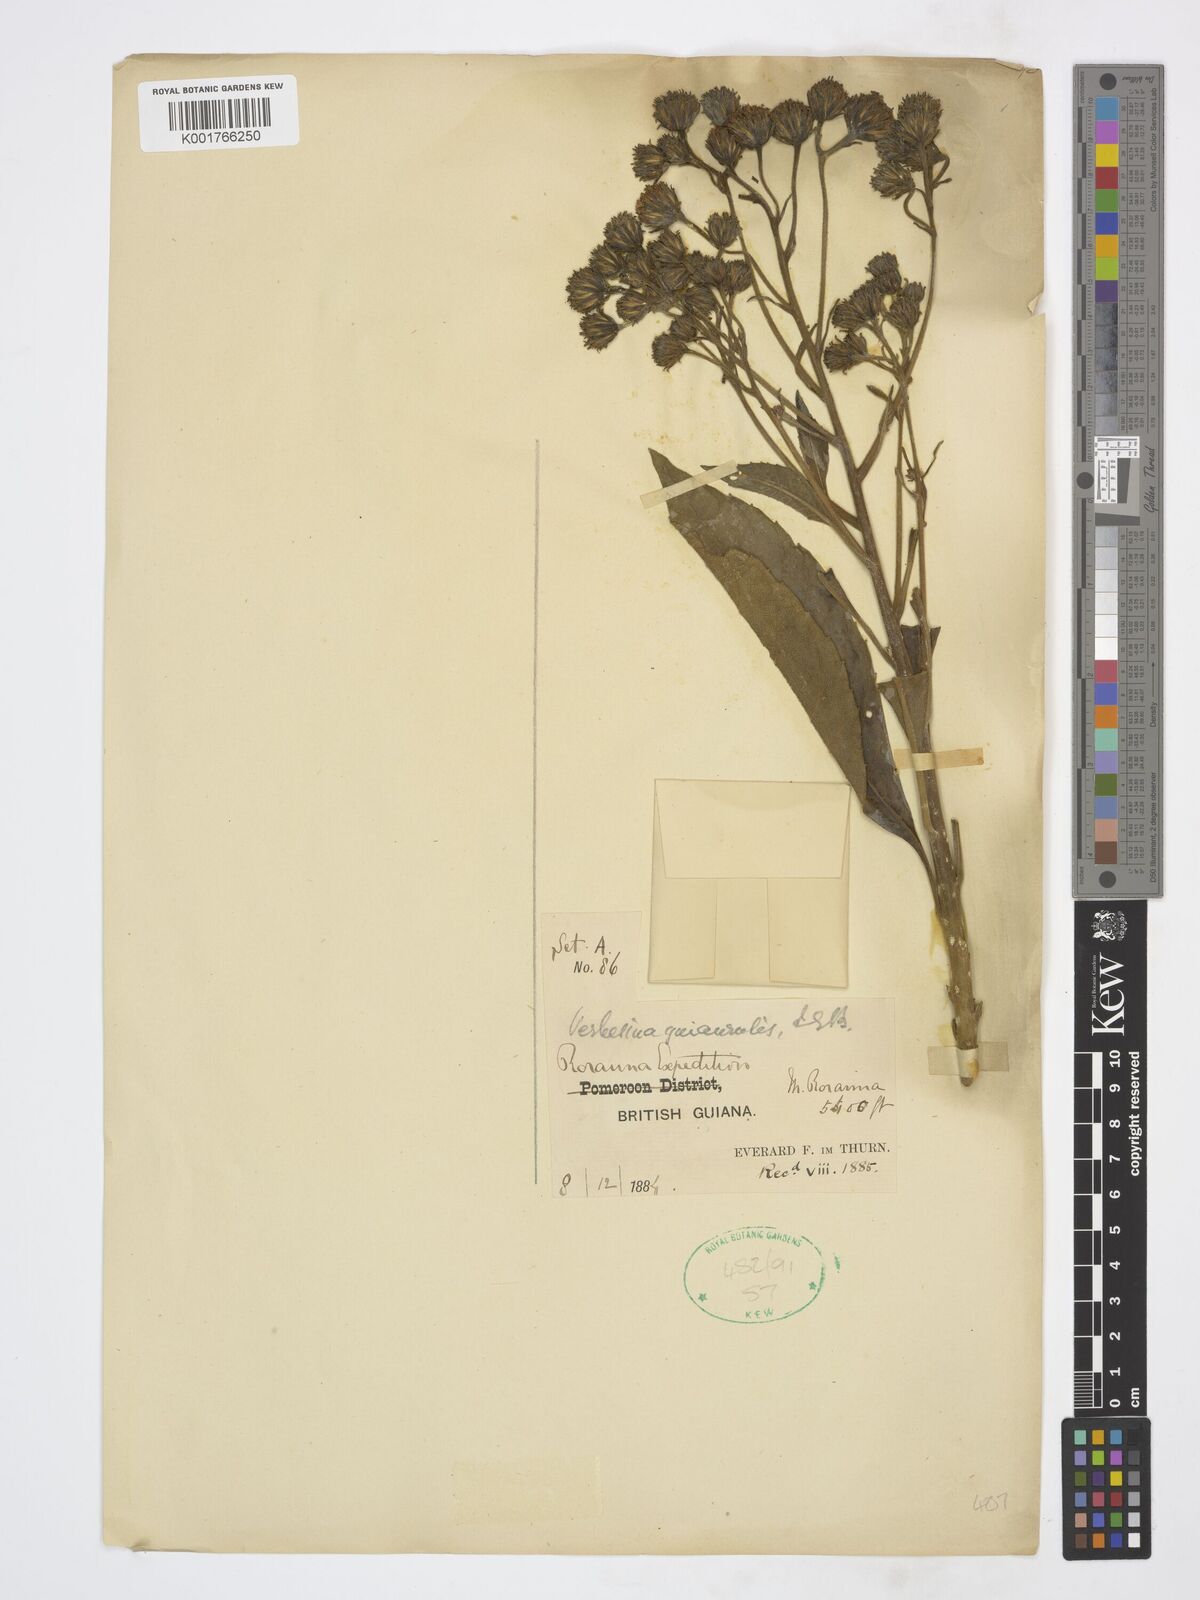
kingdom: Plantae
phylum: Tracheophyta
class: Magnoliopsida
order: Asterales
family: Asteraceae
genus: Verbesina
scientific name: Verbesina guianensis
